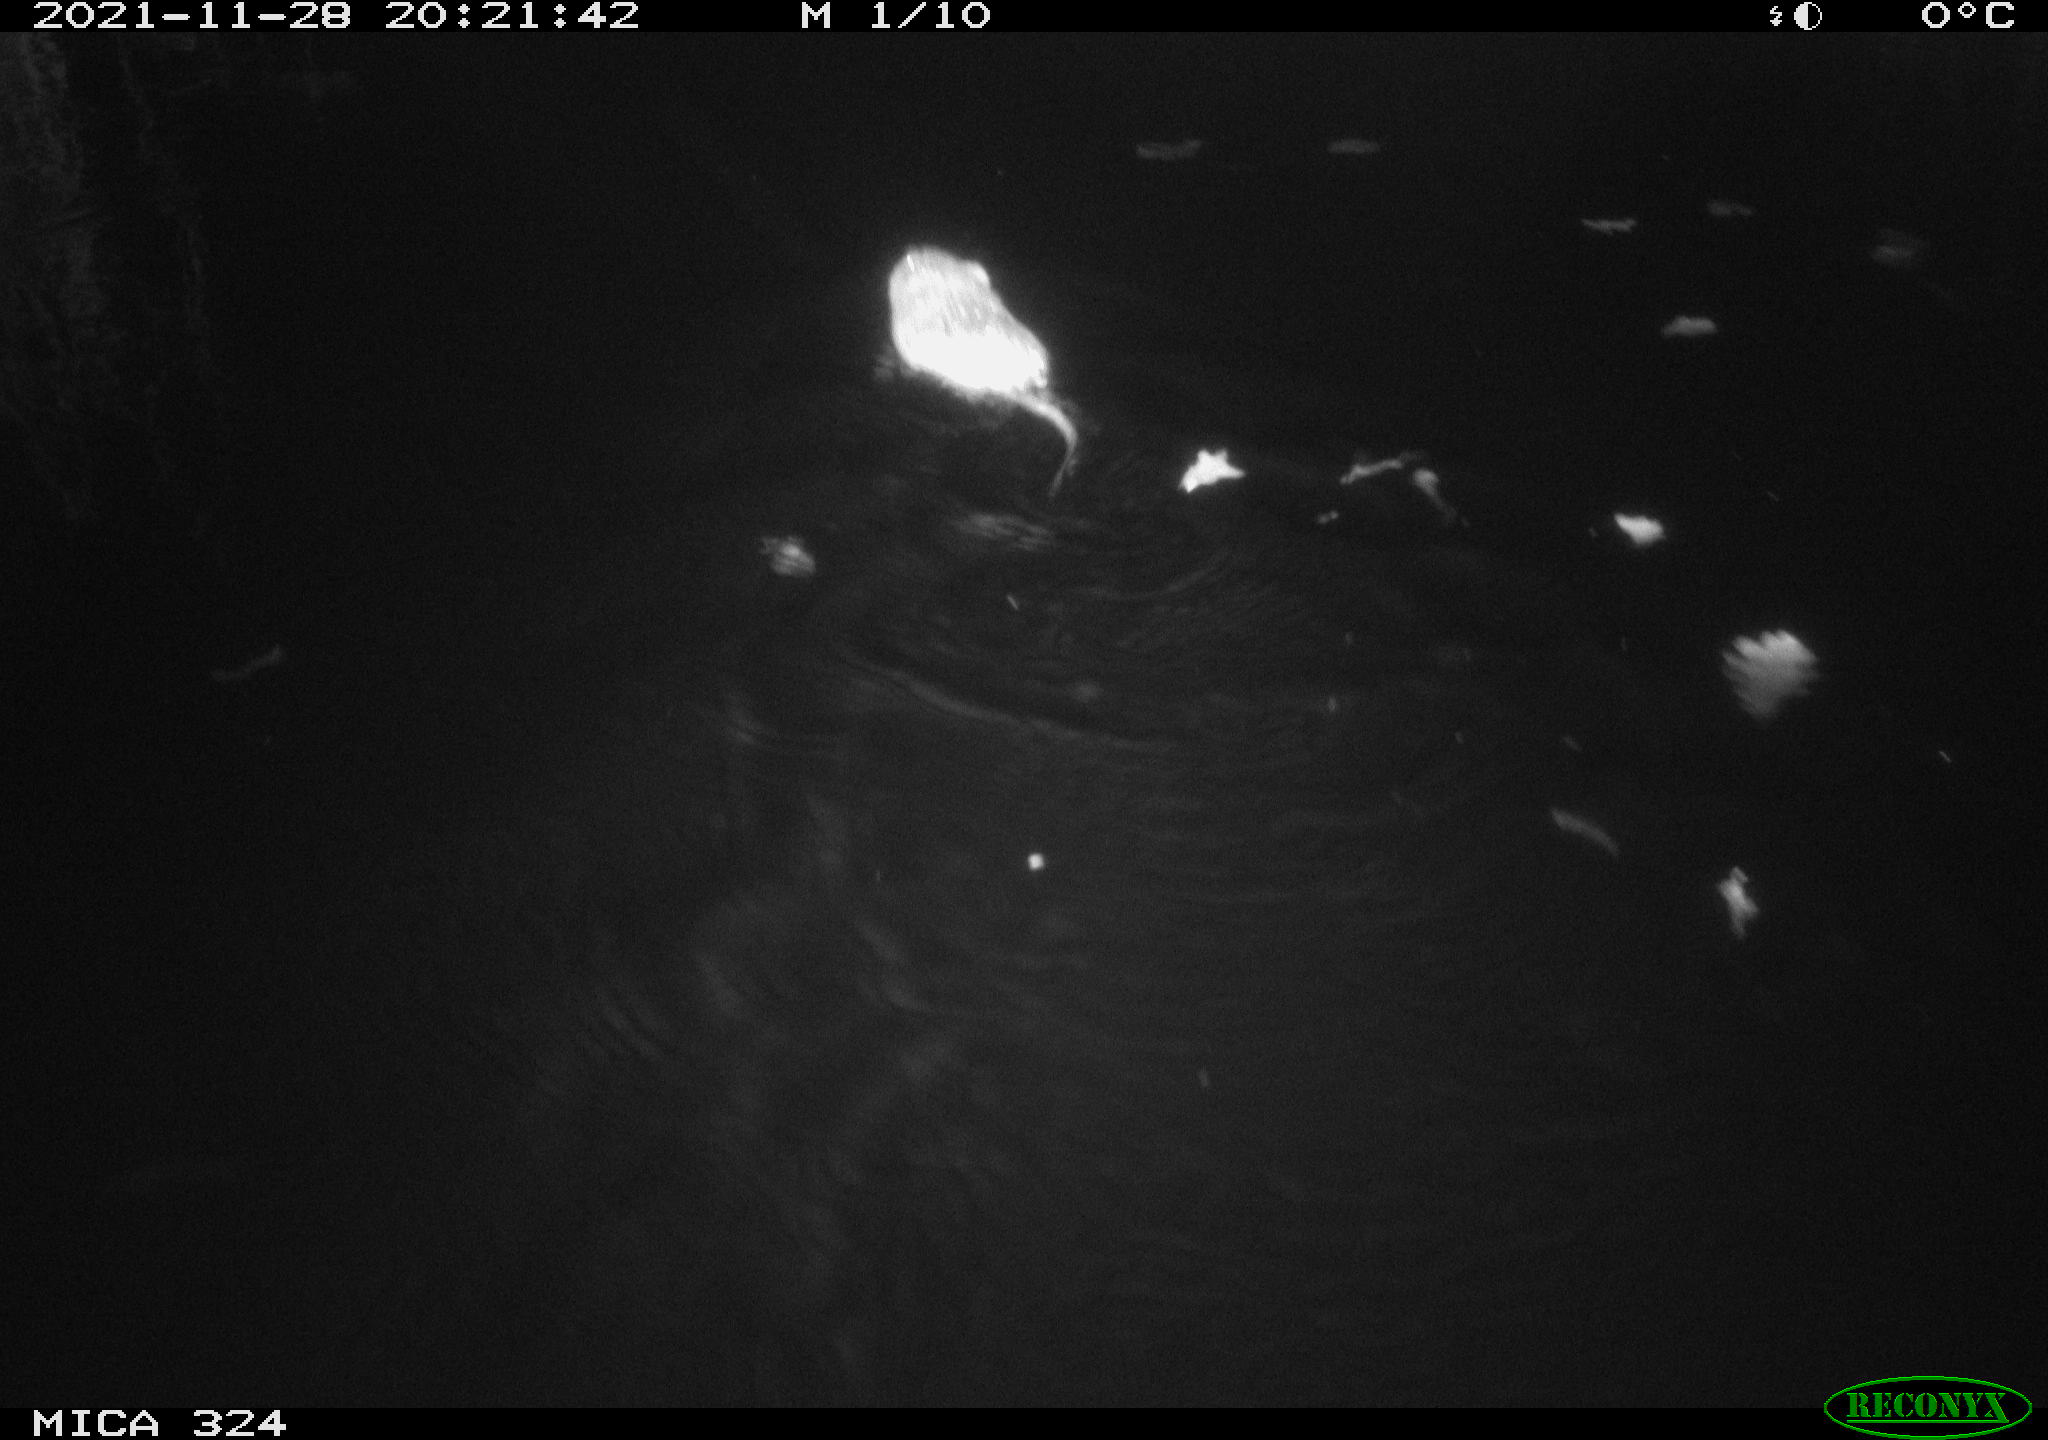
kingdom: Animalia
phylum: Chordata
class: Mammalia
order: Rodentia
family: Cricetidae
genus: Ondatra
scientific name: Ondatra zibethicus
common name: Muskrat
